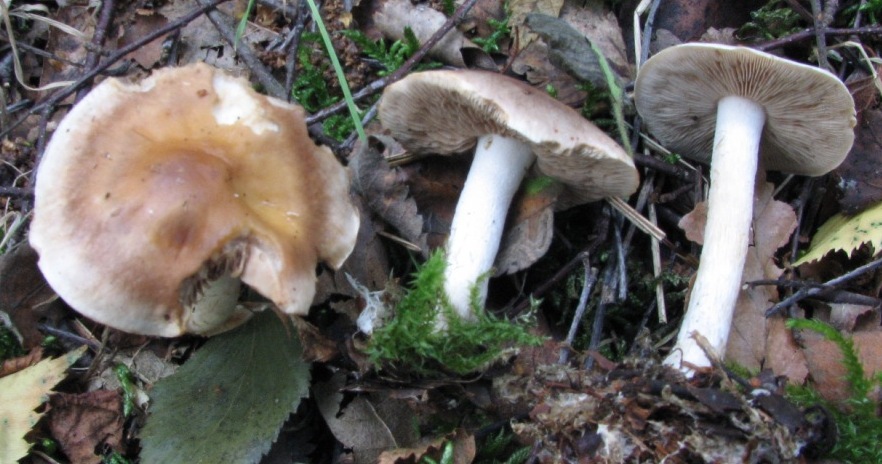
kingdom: Fungi
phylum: Basidiomycota
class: Agaricomycetes
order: Agaricales
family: Hymenogastraceae
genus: Hebeloma
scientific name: Hebeloma cavipes
